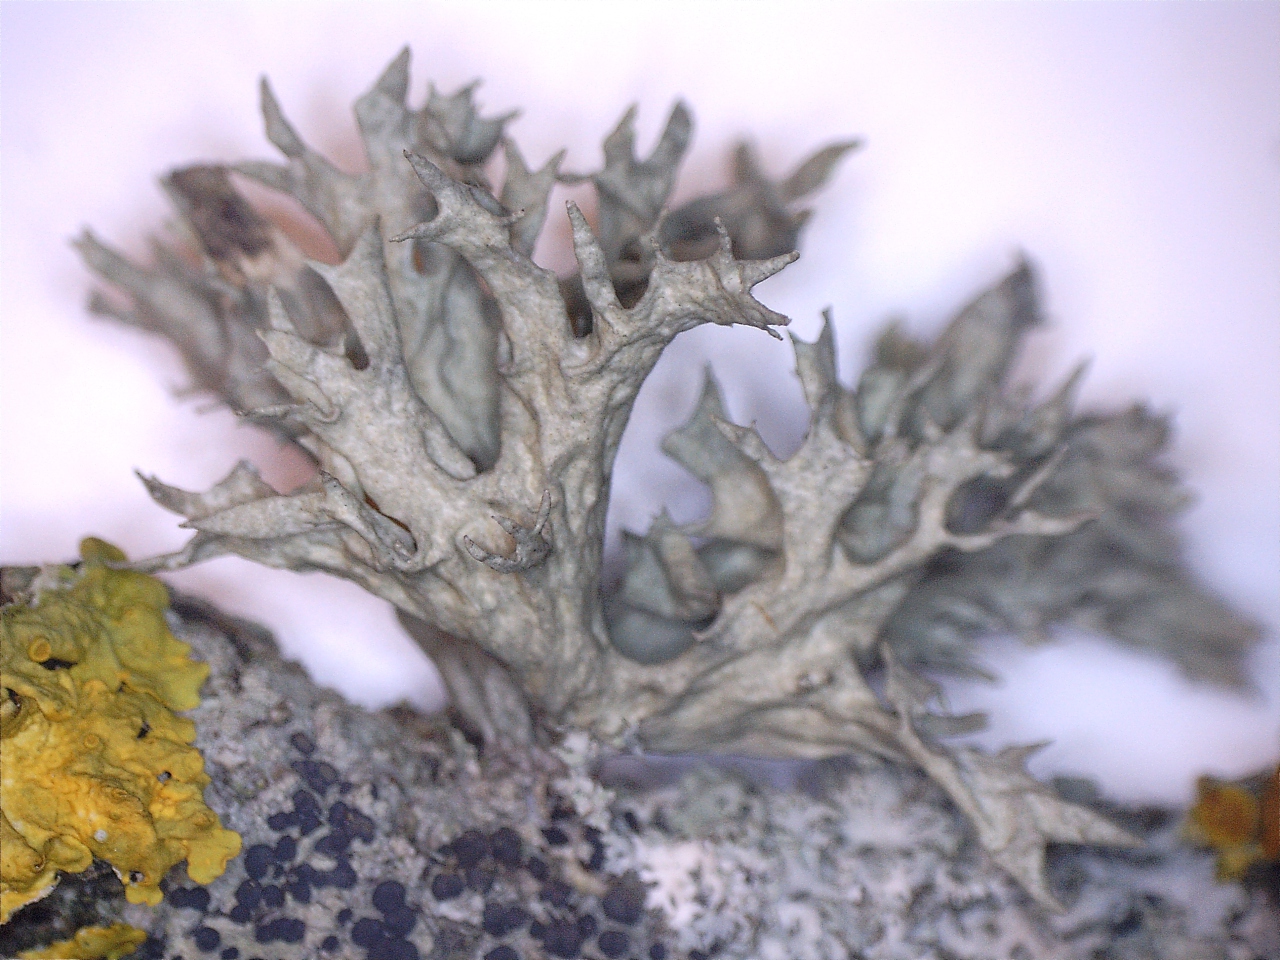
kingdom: Fungi
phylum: Ascomycota
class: Lecanoromycetes
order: Lecanorales
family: Ramalinaceae
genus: Ramalina
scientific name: Ramalina fastigiata
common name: tue-grenlav
